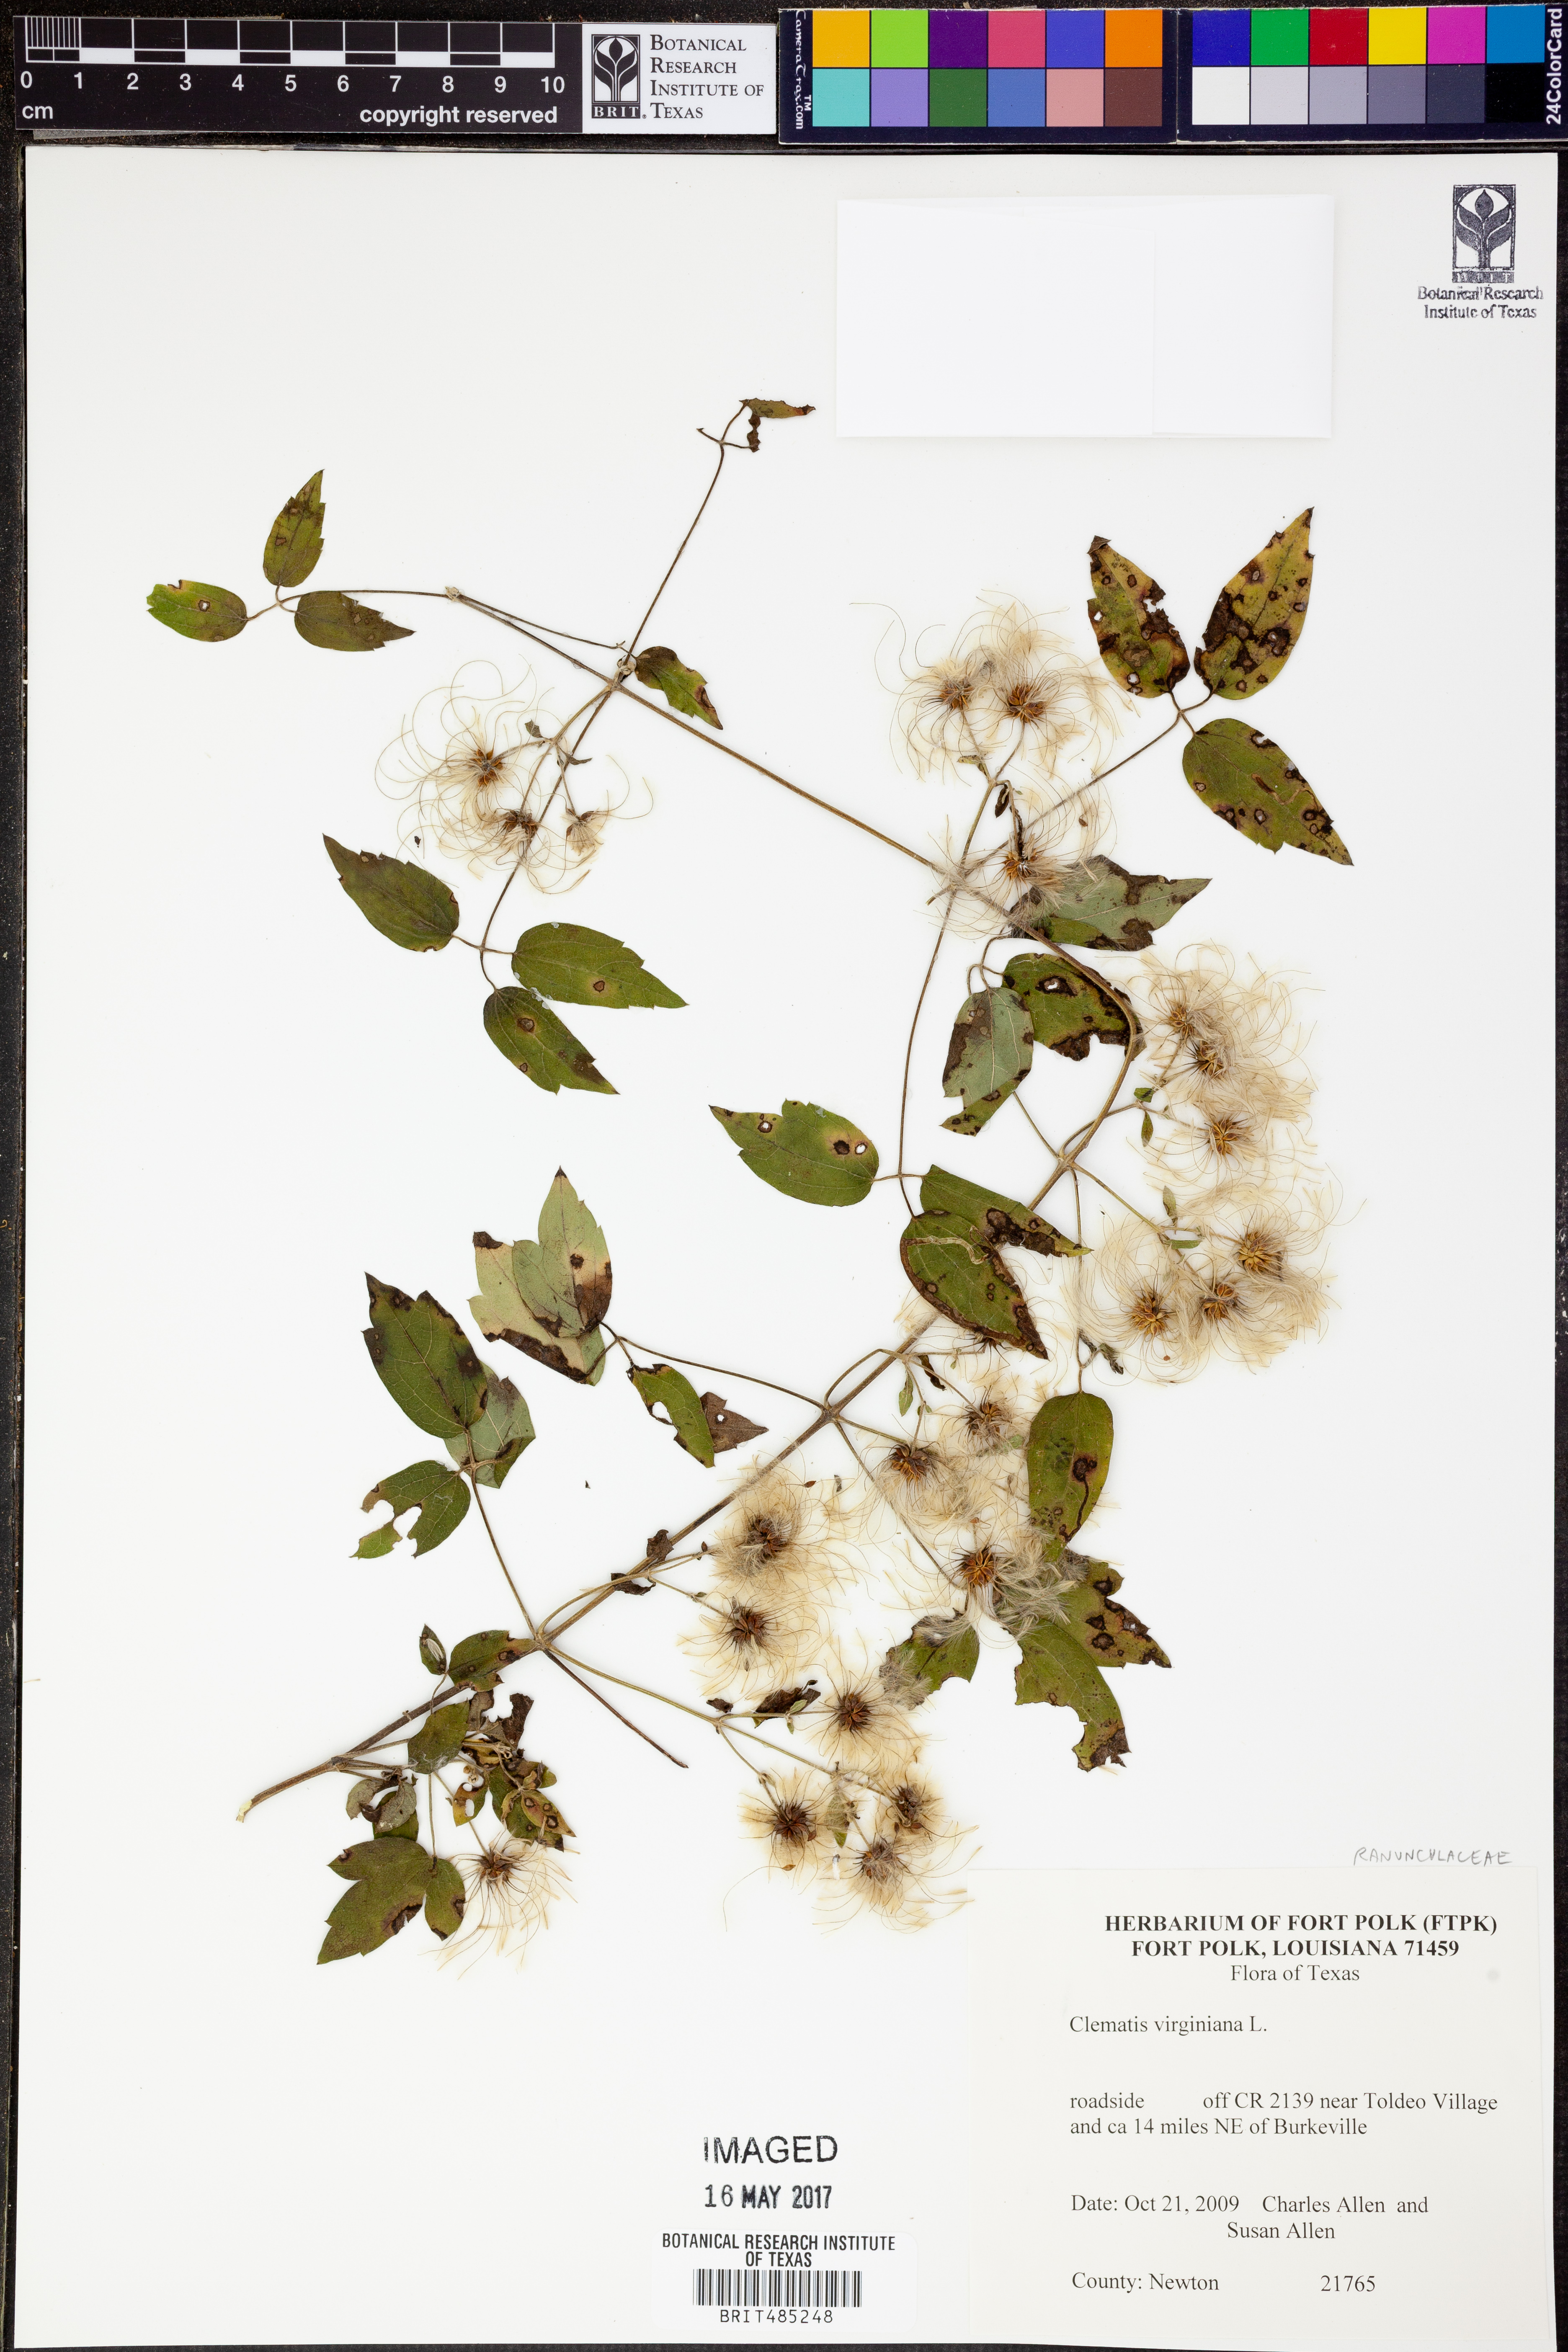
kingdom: Plantae
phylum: Tracheophyta
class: Magnoliopsida
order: Ranunculales
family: Ranunculaceae
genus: Clematis
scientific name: Clematis virginiana
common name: Virgin's-bower
